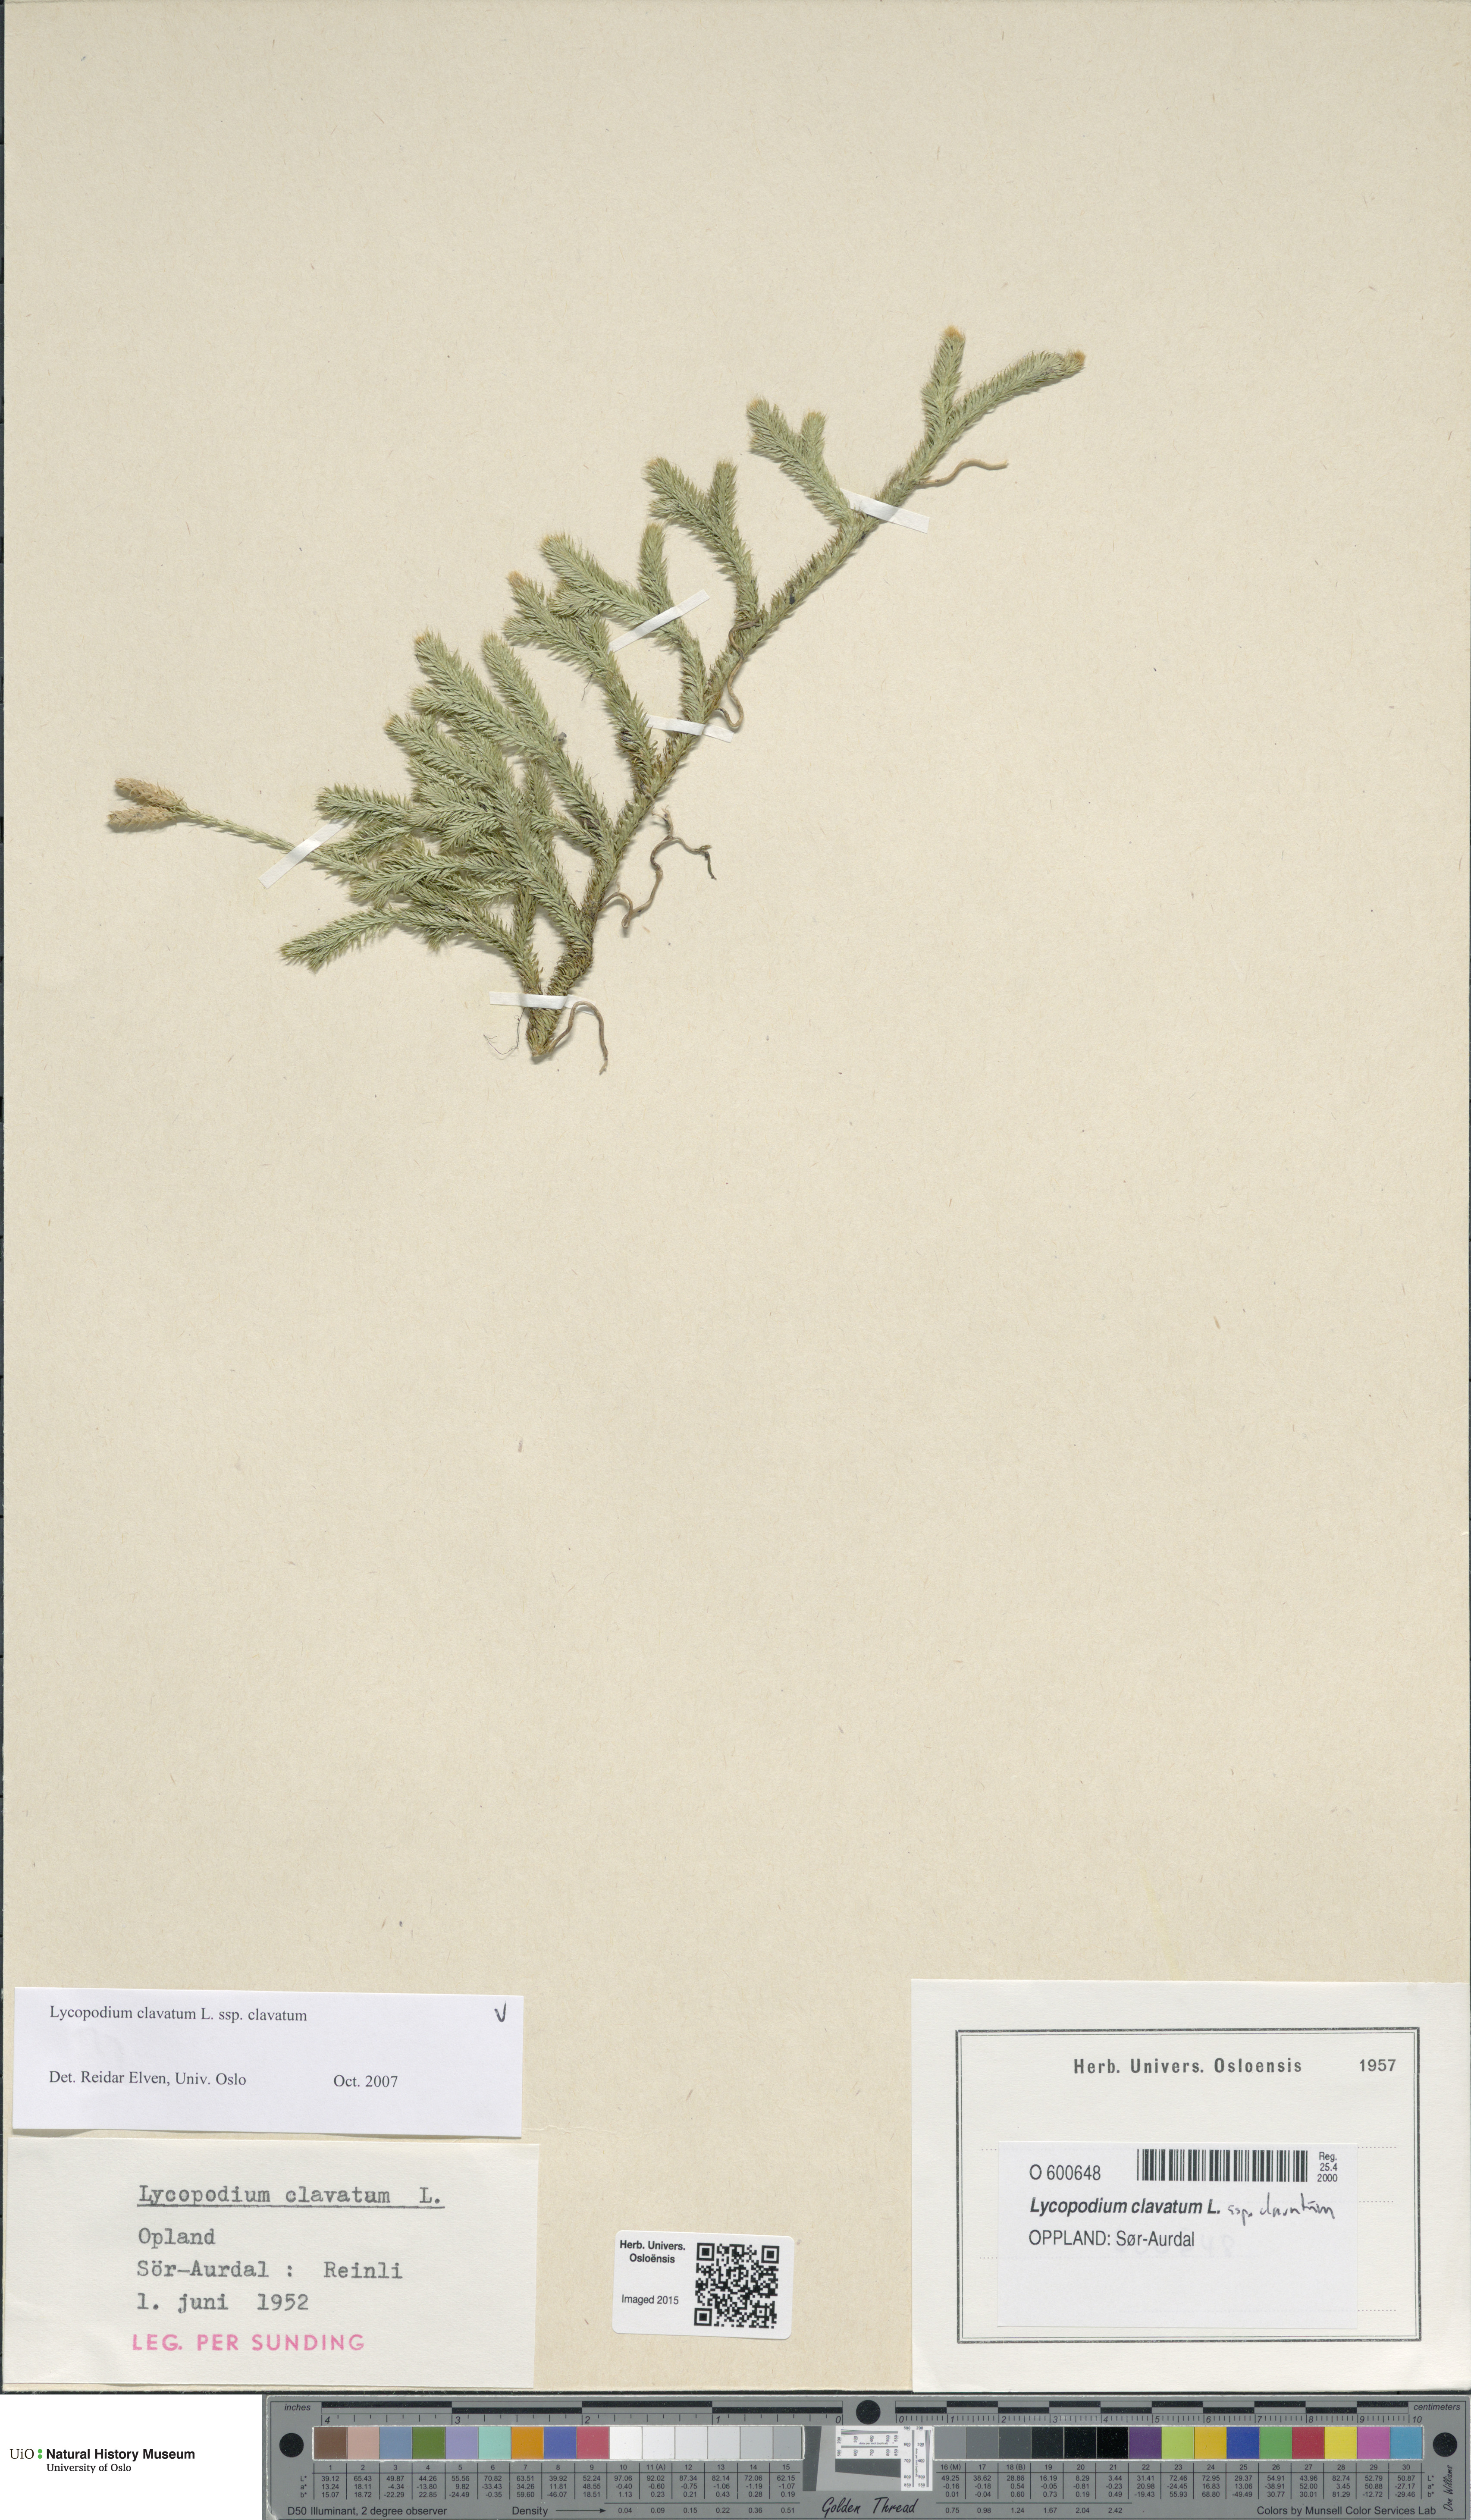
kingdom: Plantae
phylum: Tracheophyta
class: Lycopodiopsida
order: Lycopodiales
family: Lycopodiaceae
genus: Lycopodium
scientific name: Lycopodium clavatum
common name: Stag's-horn clubmoss
